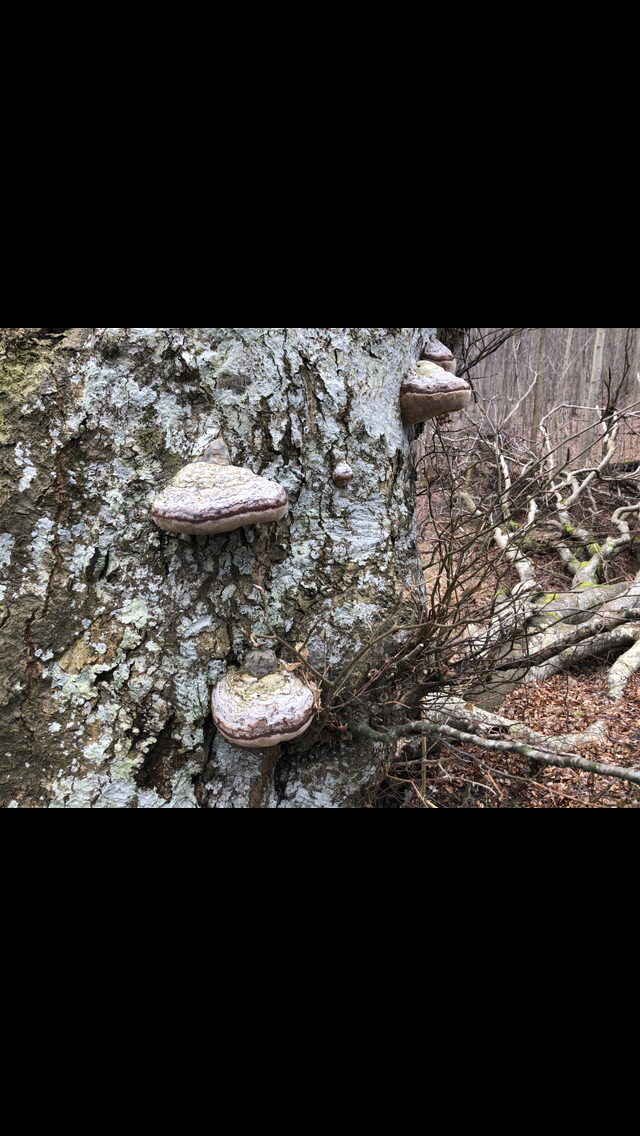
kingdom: Fungi
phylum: Basidiomycota
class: Agaricomycetes
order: Polyporales
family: Polyporaceae
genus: Fomes
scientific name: Fomes fomentarius
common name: tøndersvamp
